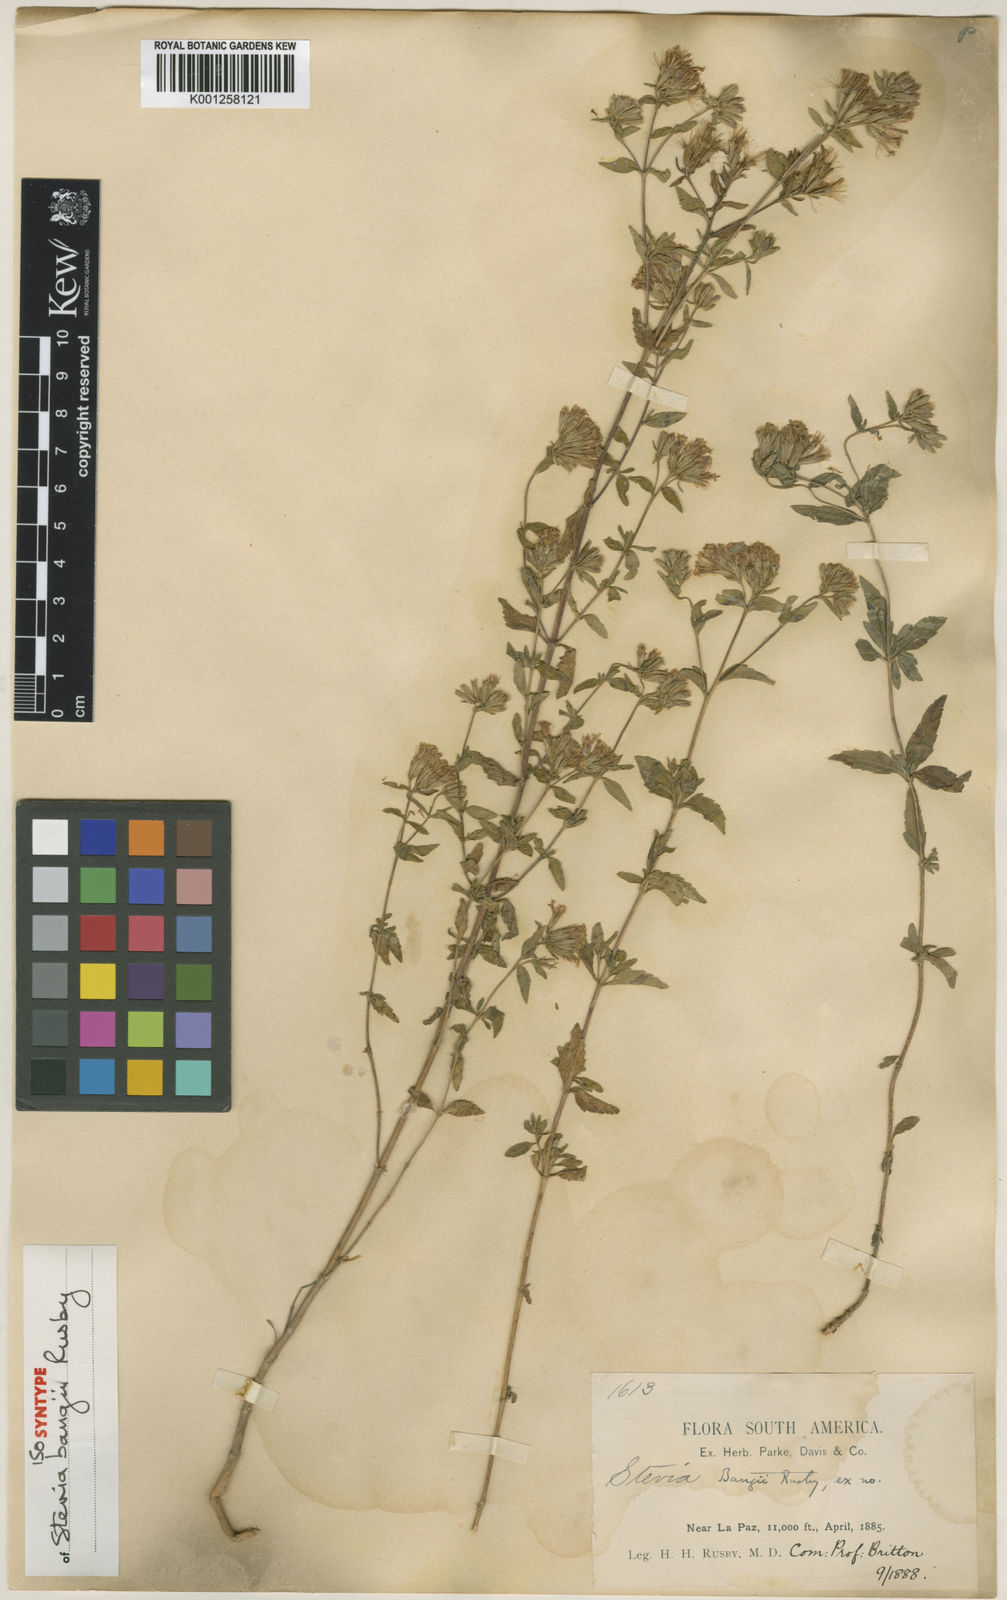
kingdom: Plantae
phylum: Tracheophyta
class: Magnoliopsida
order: Asterales
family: Asteraceae
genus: Stevia
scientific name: Stevia minor
